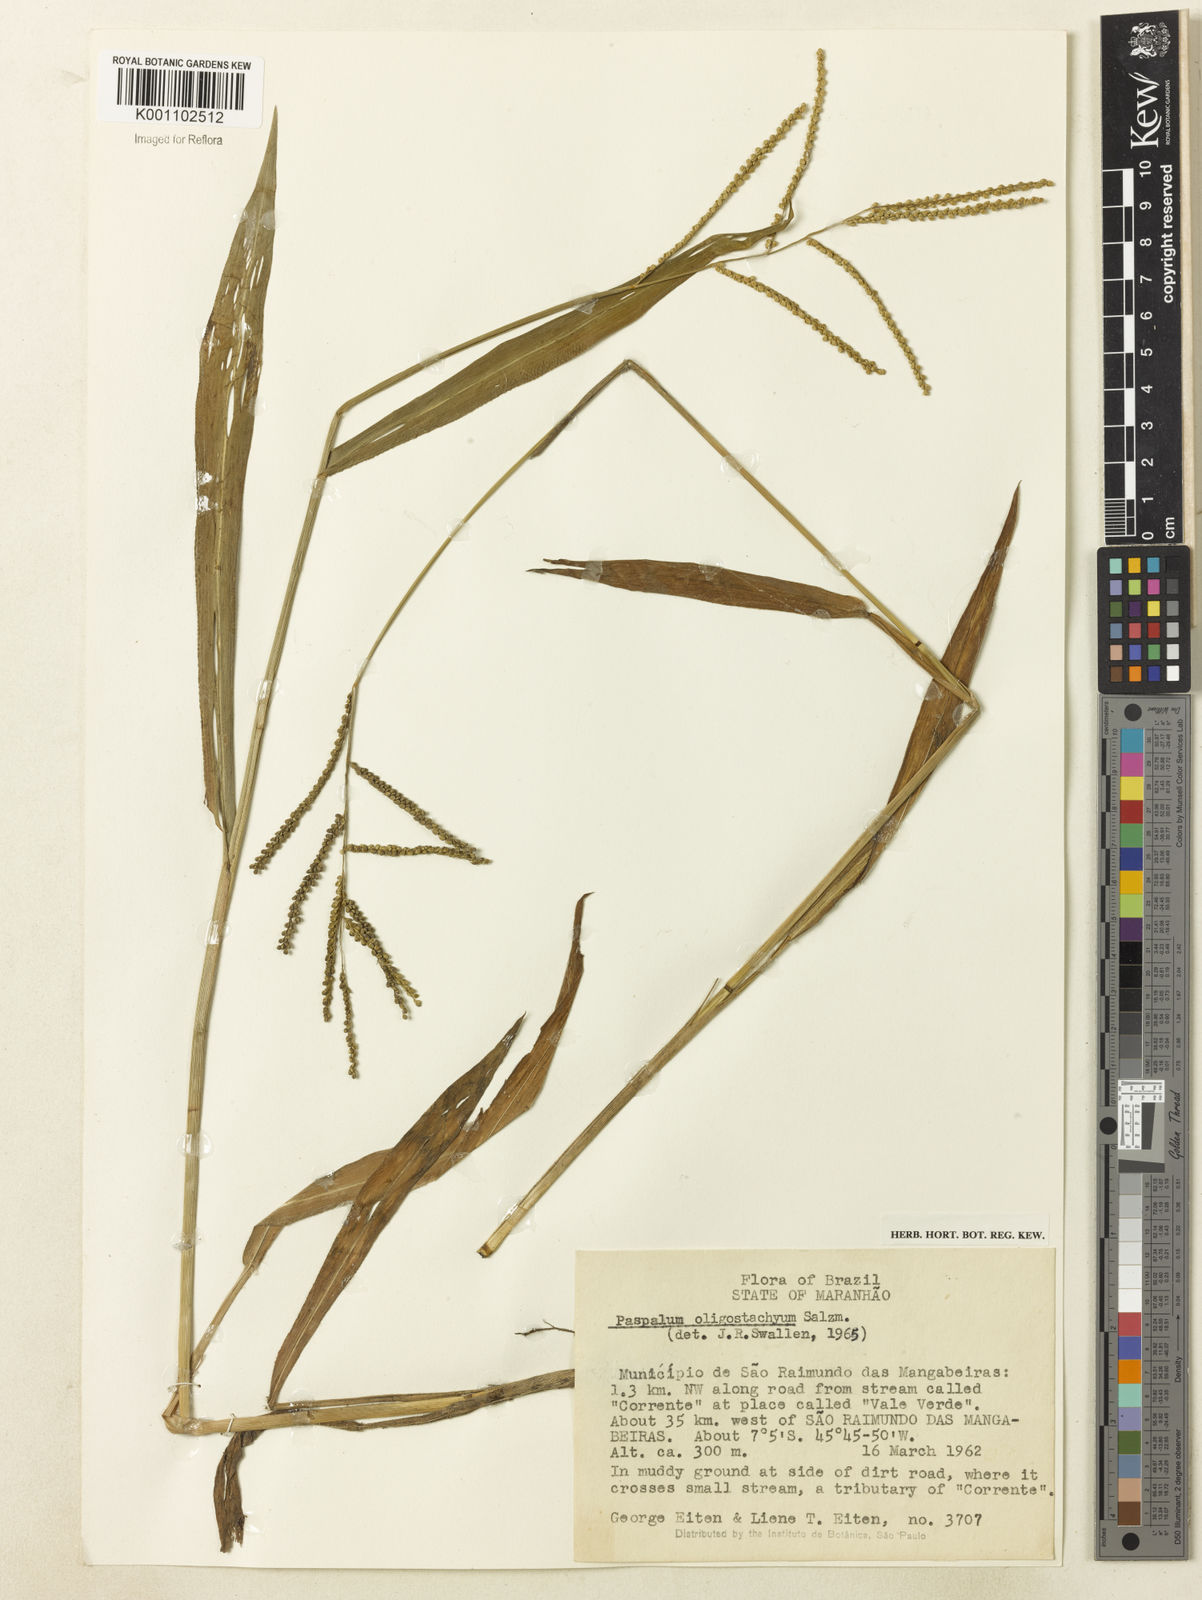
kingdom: Plantae
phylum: Tracheophyta
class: Liliopsida
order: Poales
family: Poaceae
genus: Paspalum
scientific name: Paspalum oligostachyum
